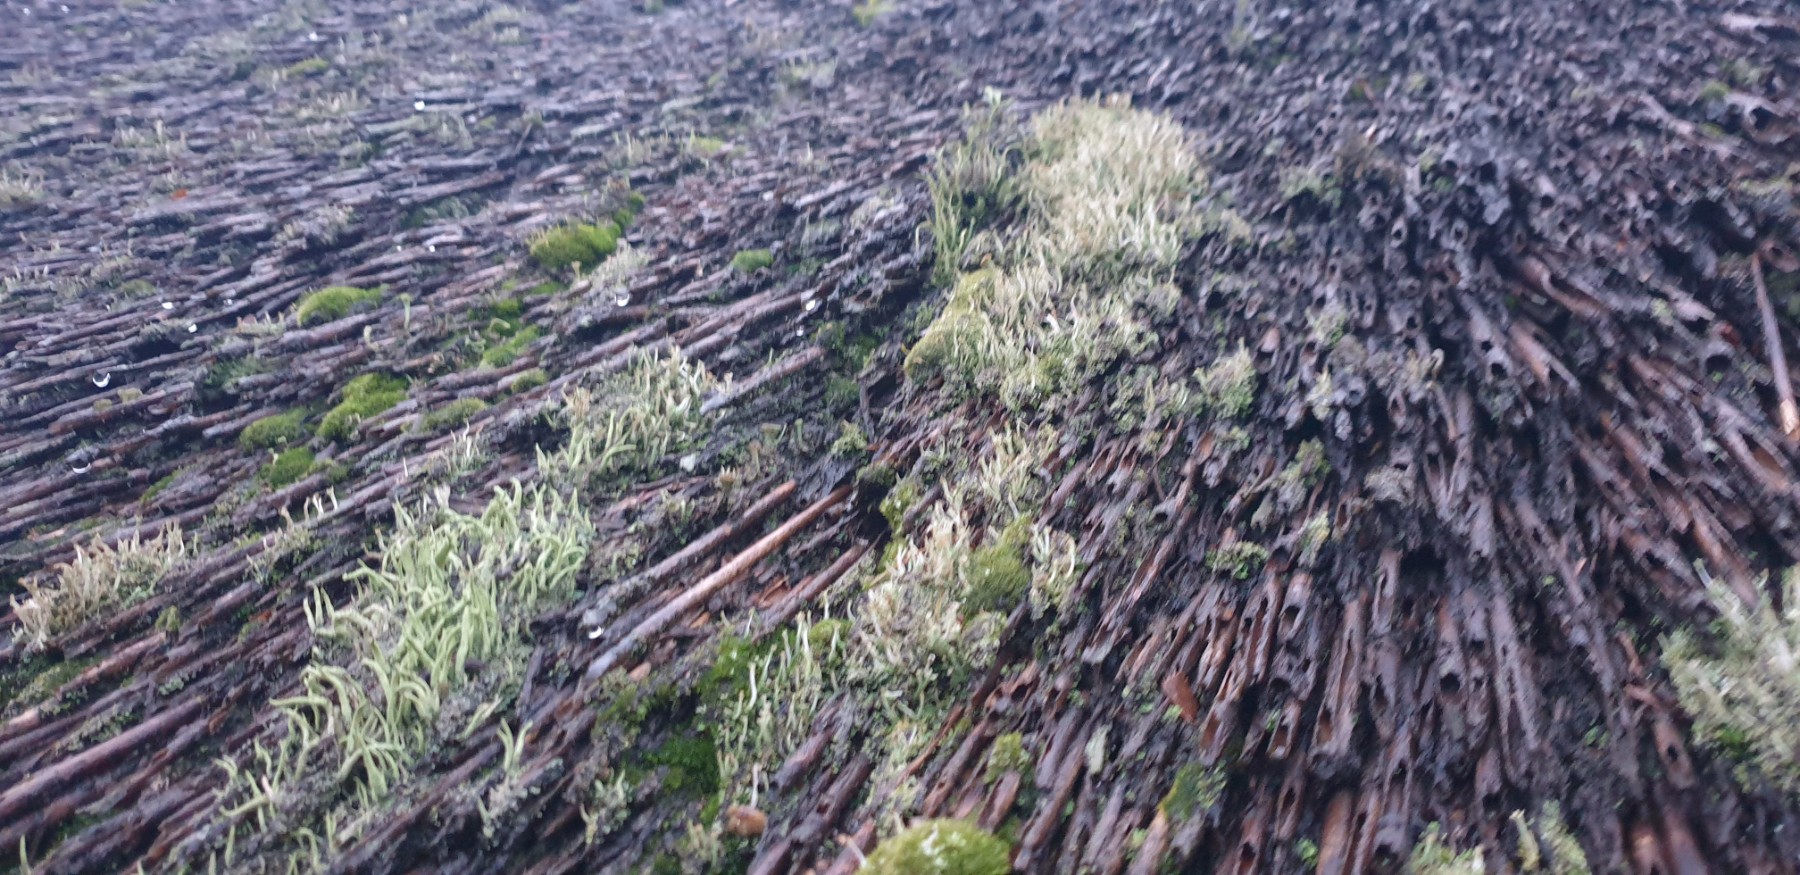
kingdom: Fungi
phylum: Ascomycota
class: Lecanoromycetes
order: Lecanorales
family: Cladoniaceae
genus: Cladonia
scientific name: Cladonia glauca
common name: grågrøn bægerlav
